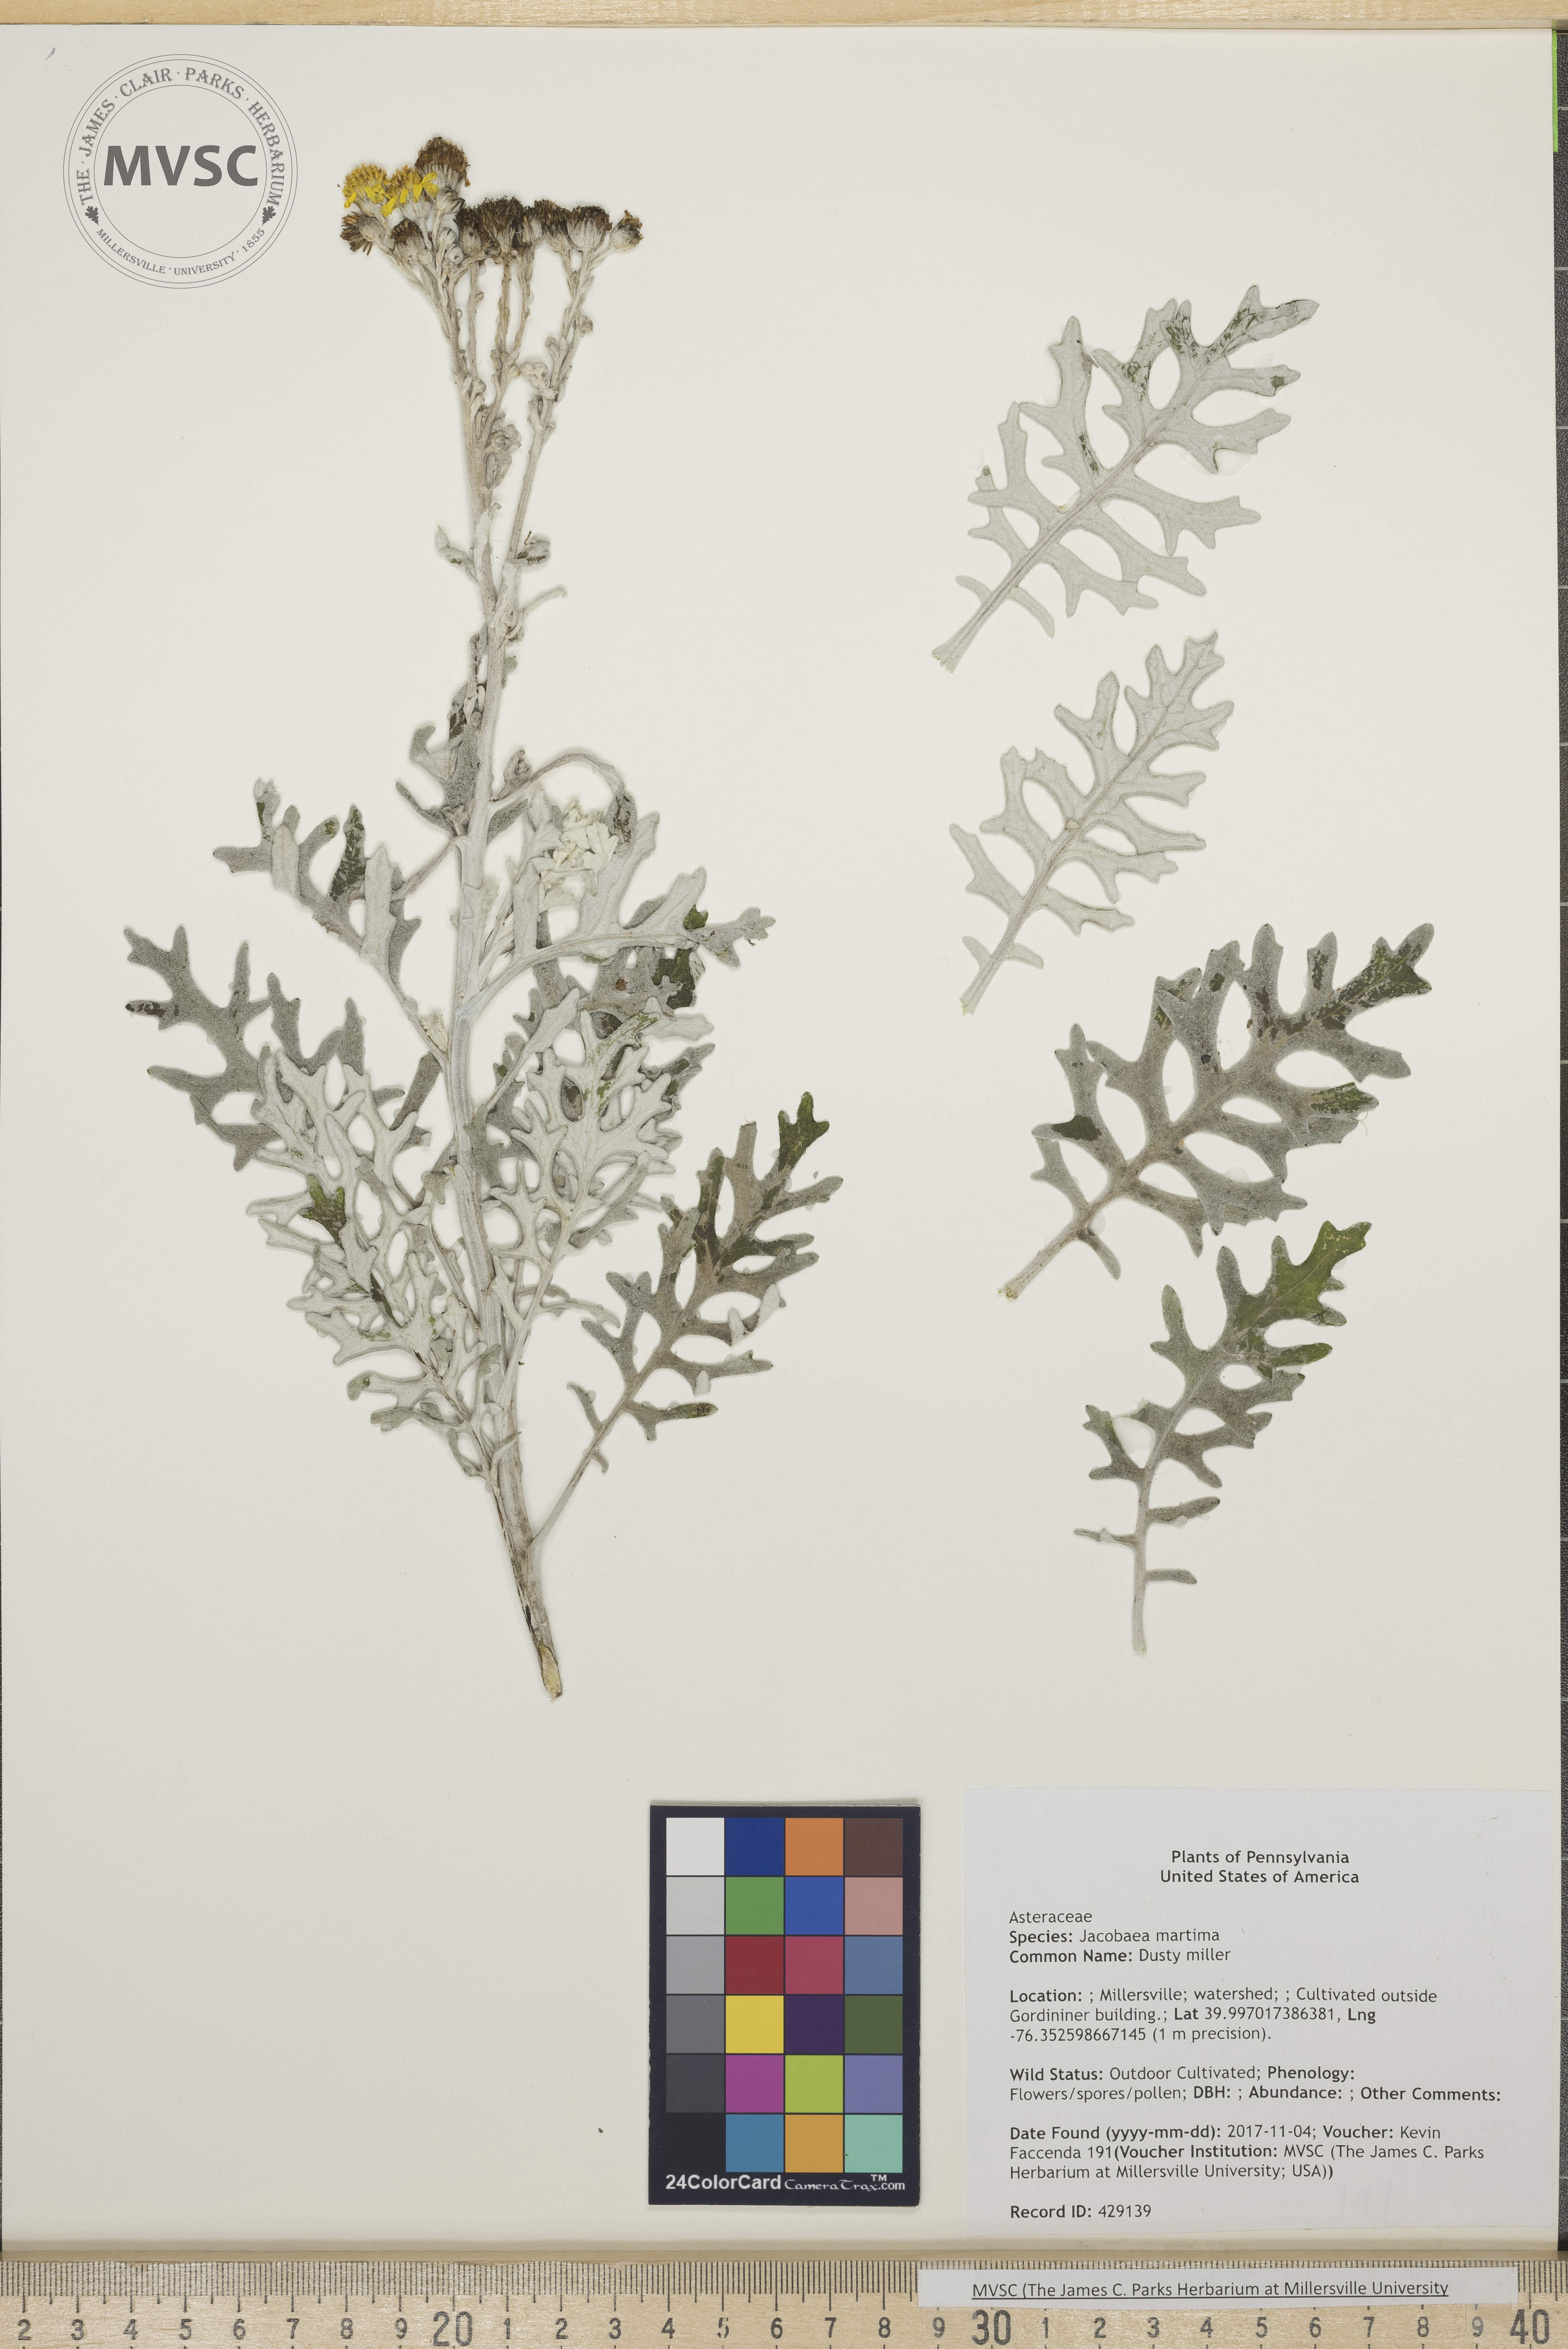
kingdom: Plantae
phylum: Tracheophyta
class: Magnoliopsida
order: Asterales
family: Asteraceae
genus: Jacobaea
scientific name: Jacobaea maritima
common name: Dusty miller
